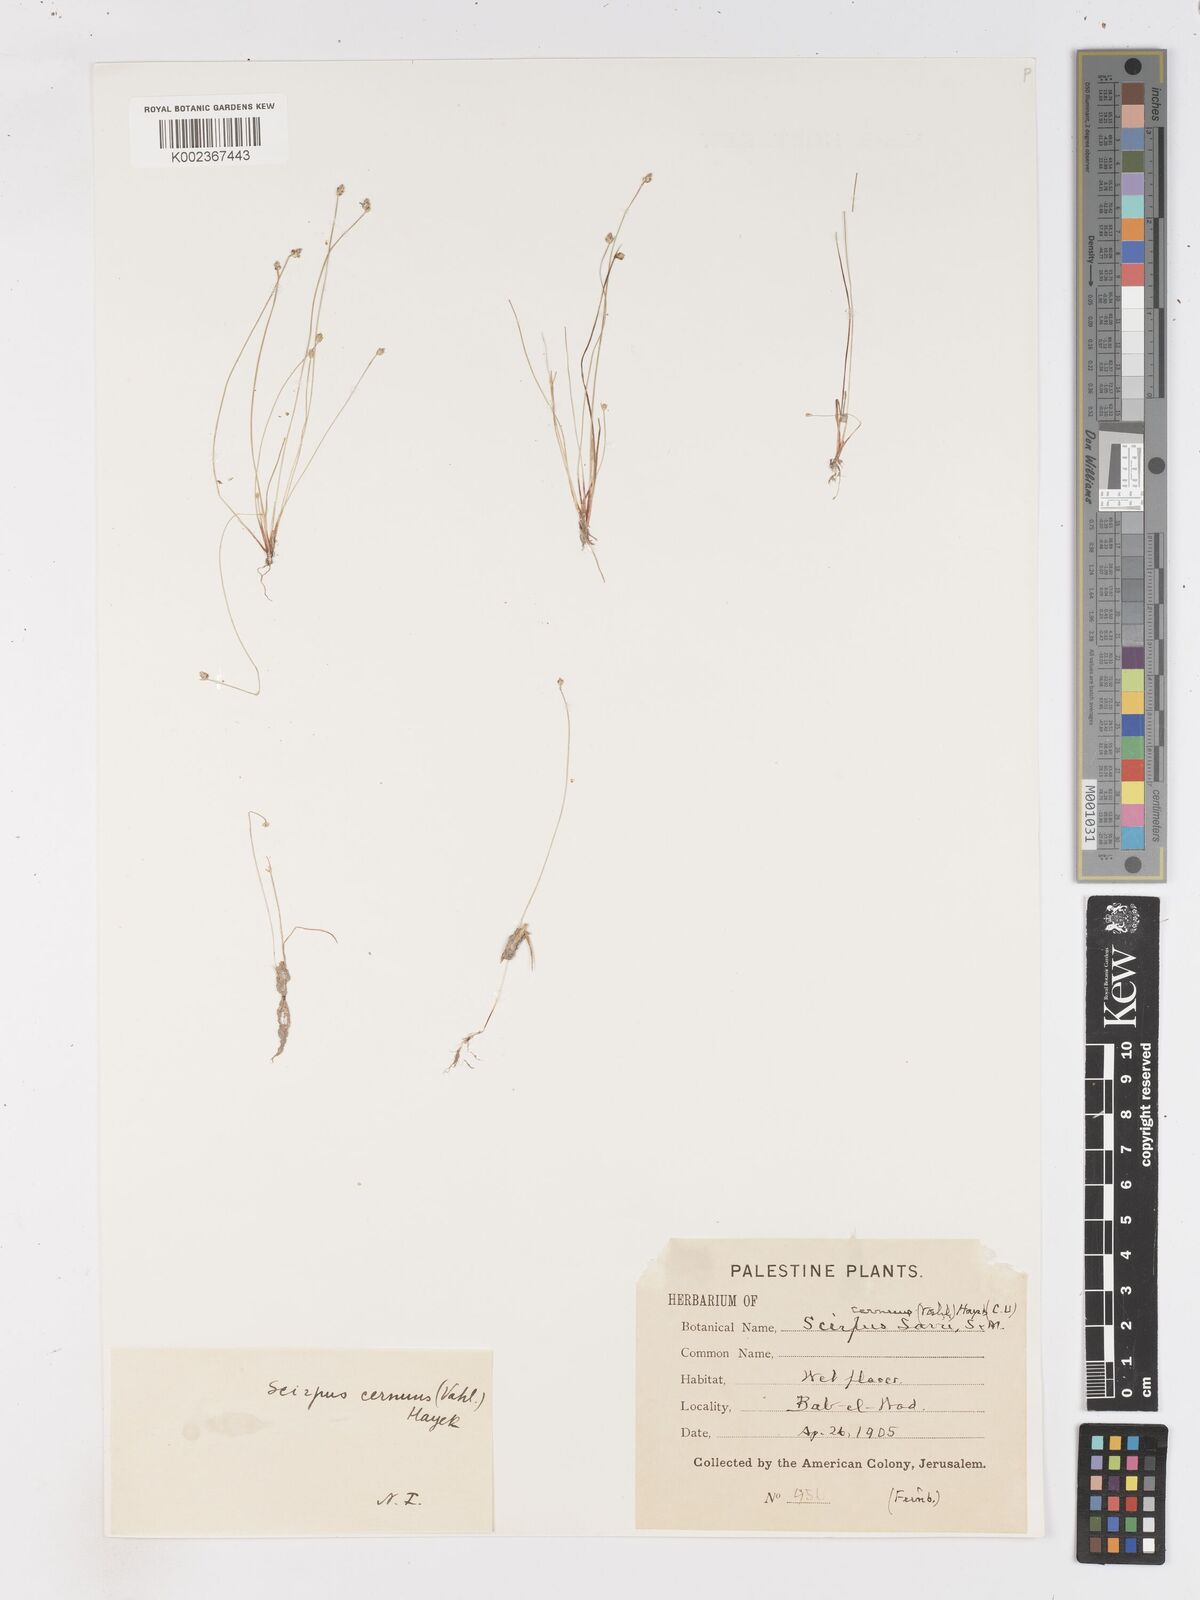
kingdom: Plantae
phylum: Tracheophyta
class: Liliopsida
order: Poales
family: Cyperaceae
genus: Isolepis
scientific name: Isolepis cernua
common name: Slender club-rush
